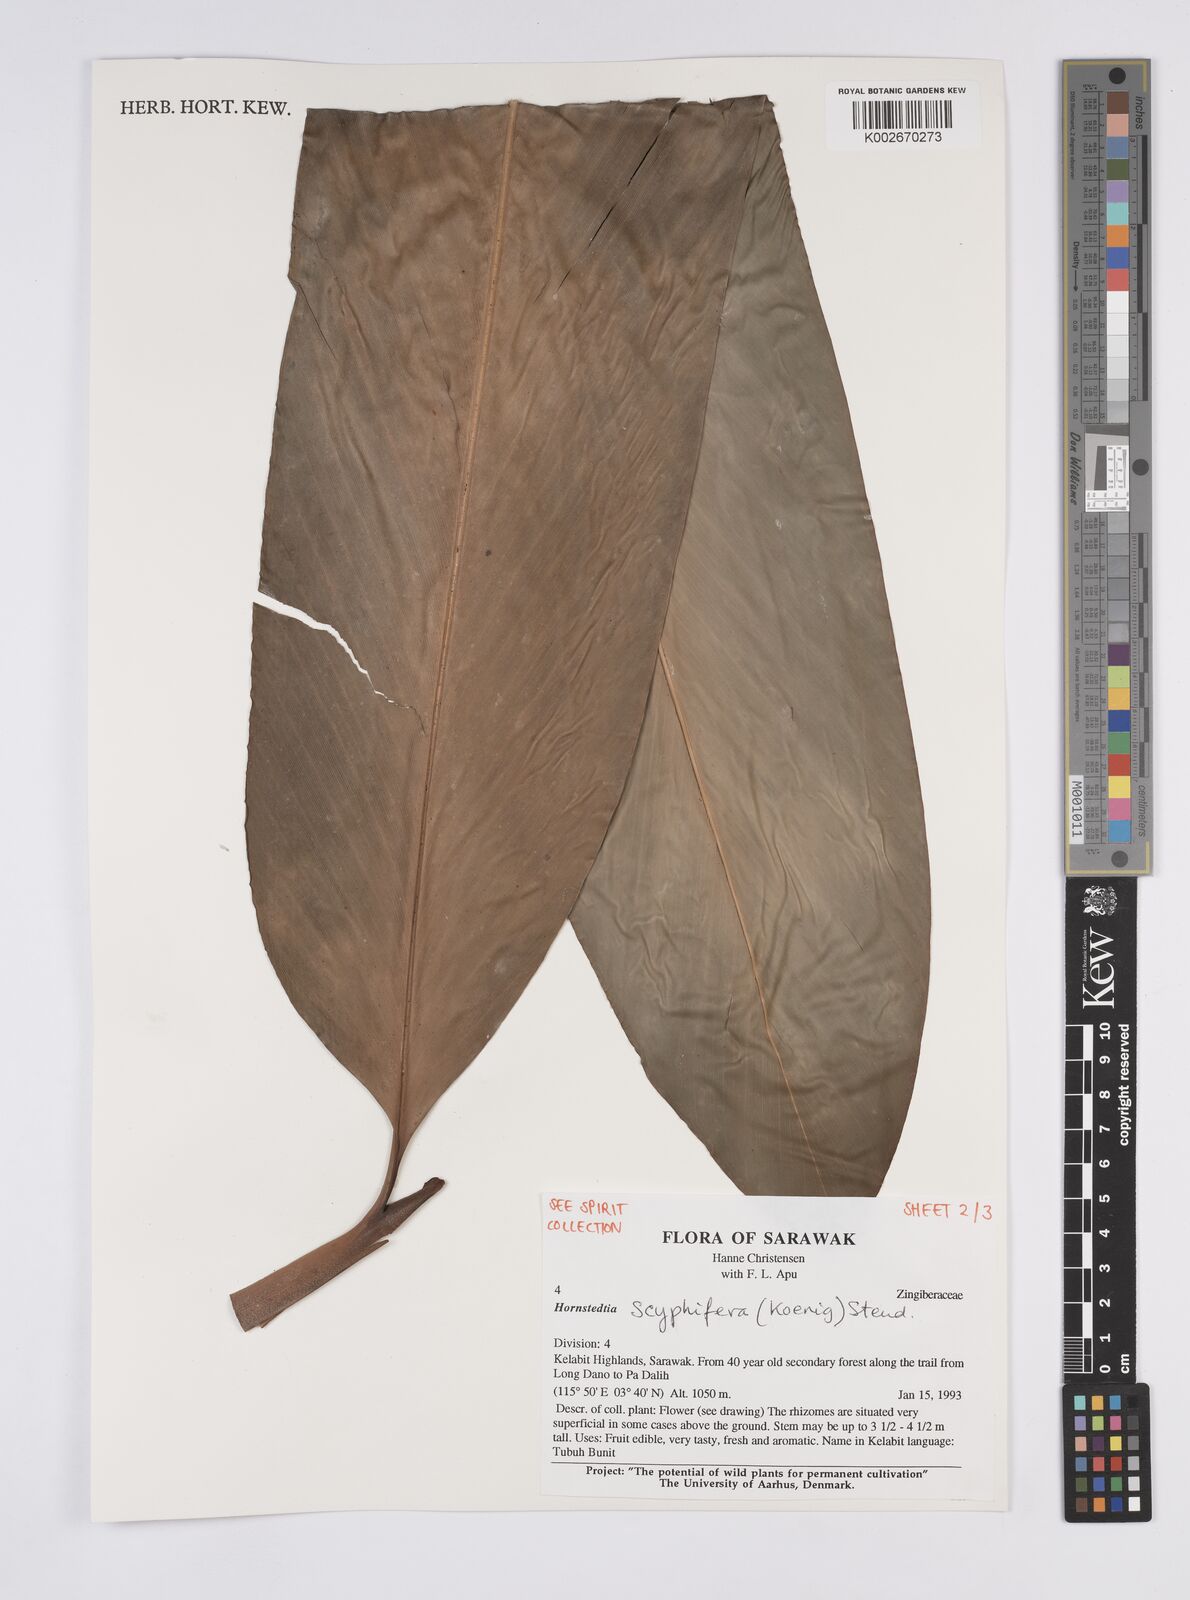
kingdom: Plantae
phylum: Tracheophyta
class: Liliopsida
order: Zingiberales
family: Zingiberaceae
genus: Hornstedtia
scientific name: Hornstedtia scyphifera
